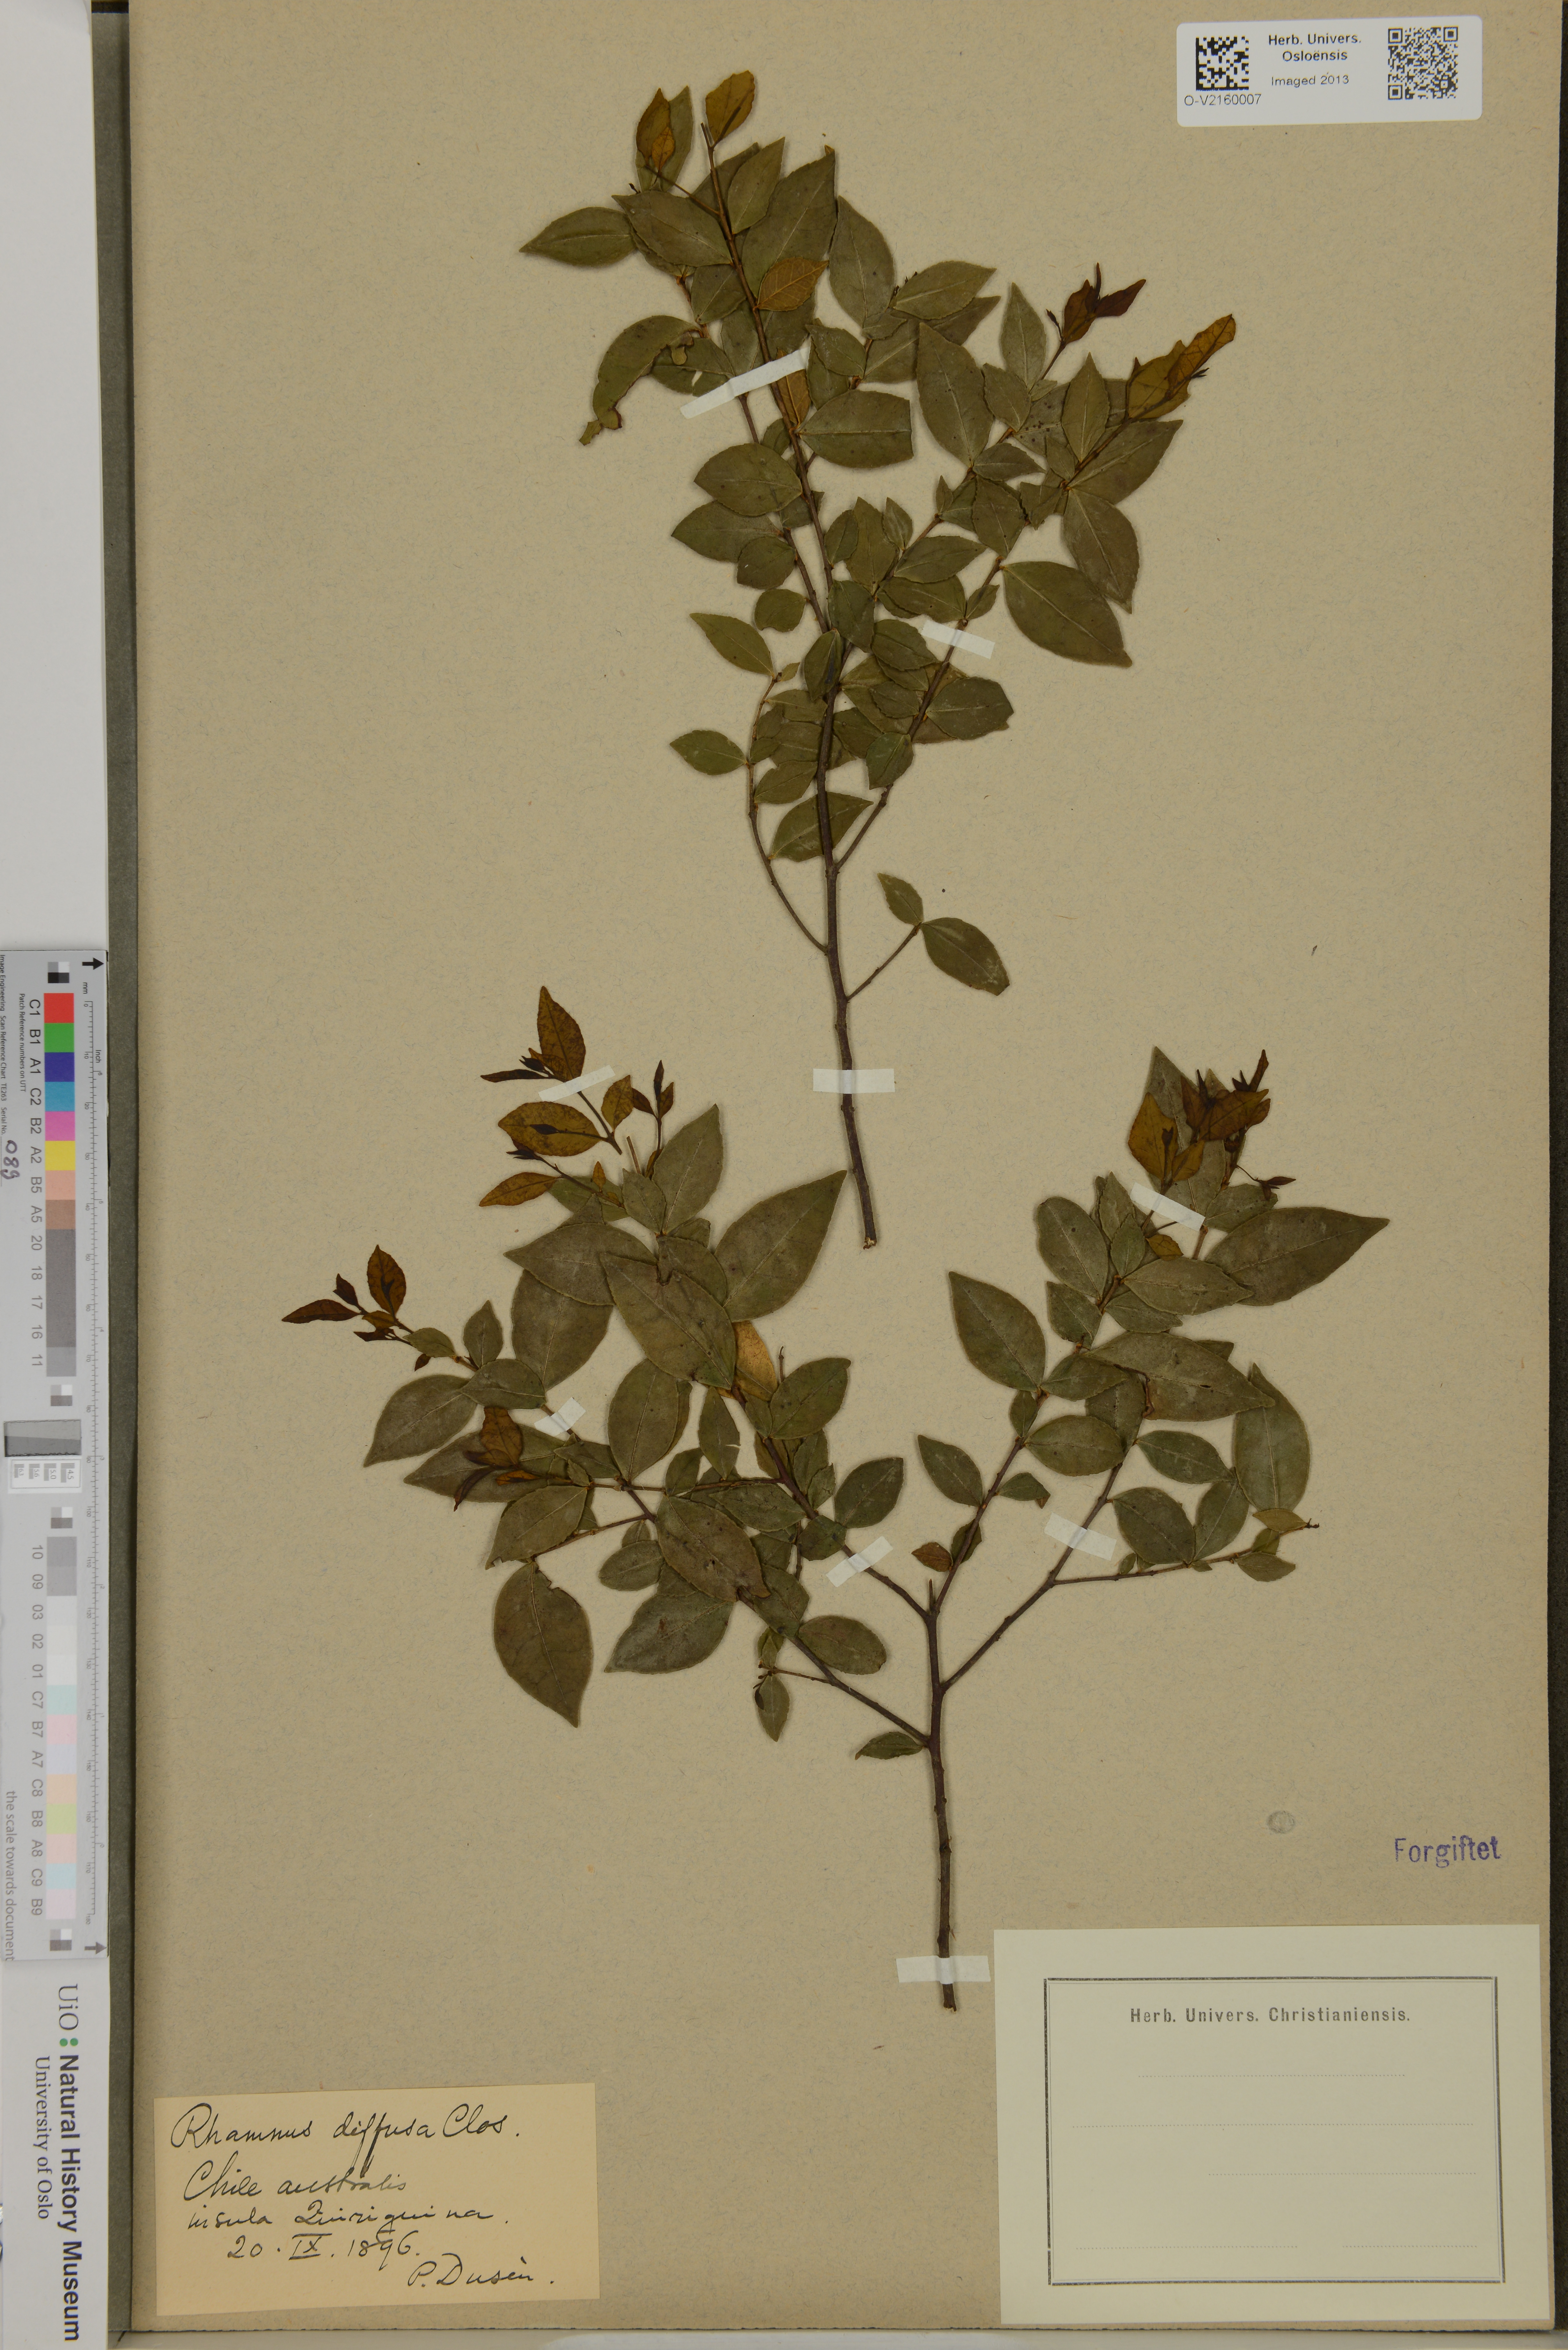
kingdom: Plantae
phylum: Tracheophyta
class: Magnoliopsida
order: Rosales
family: Rhamnaceae
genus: Condalia
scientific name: Condalia maytenoides
